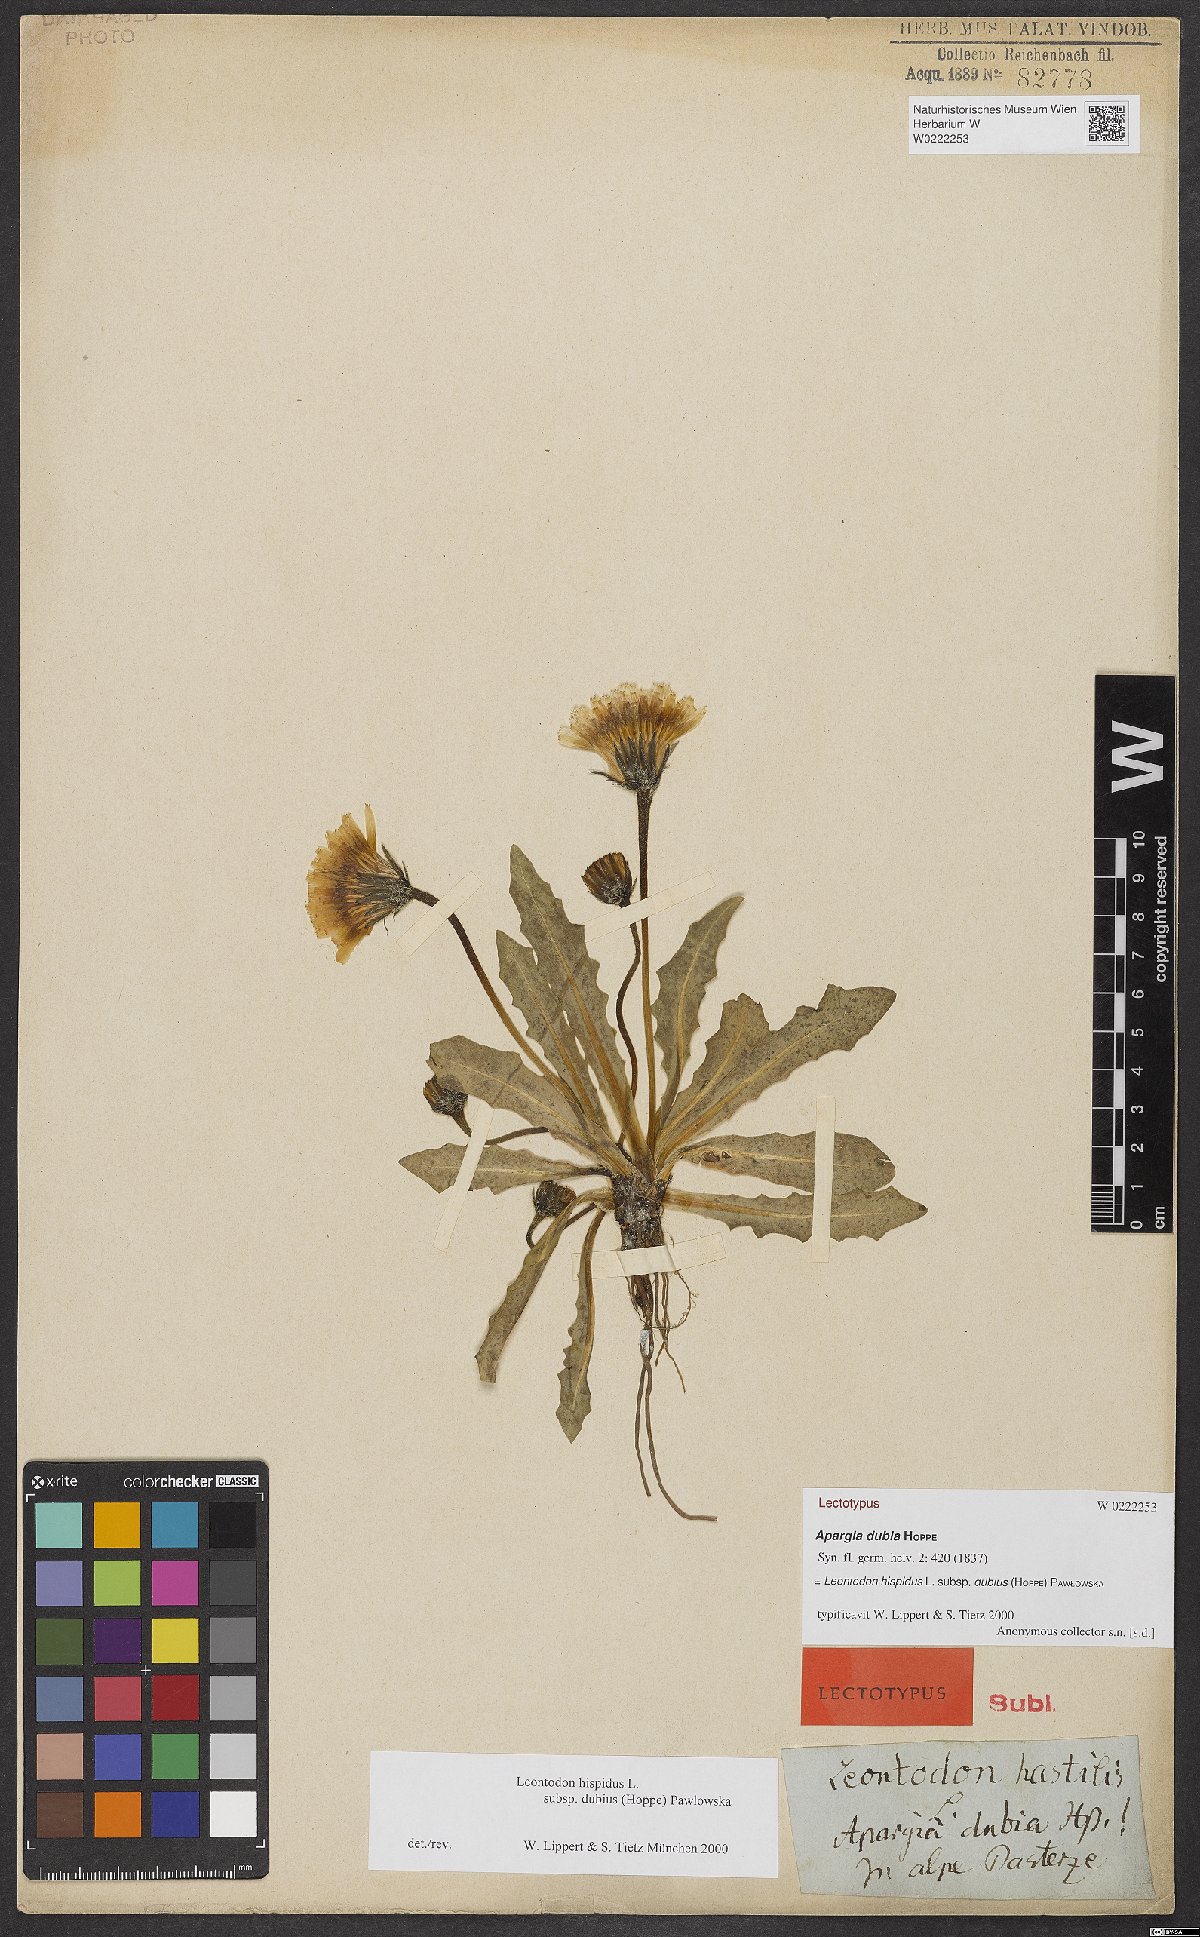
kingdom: Plantae
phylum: Tracheophyta
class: Magnoliopsida
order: Asterales
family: Asteraceae
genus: Leontodon
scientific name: Leontodon hispidus
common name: Rough hawkbit
